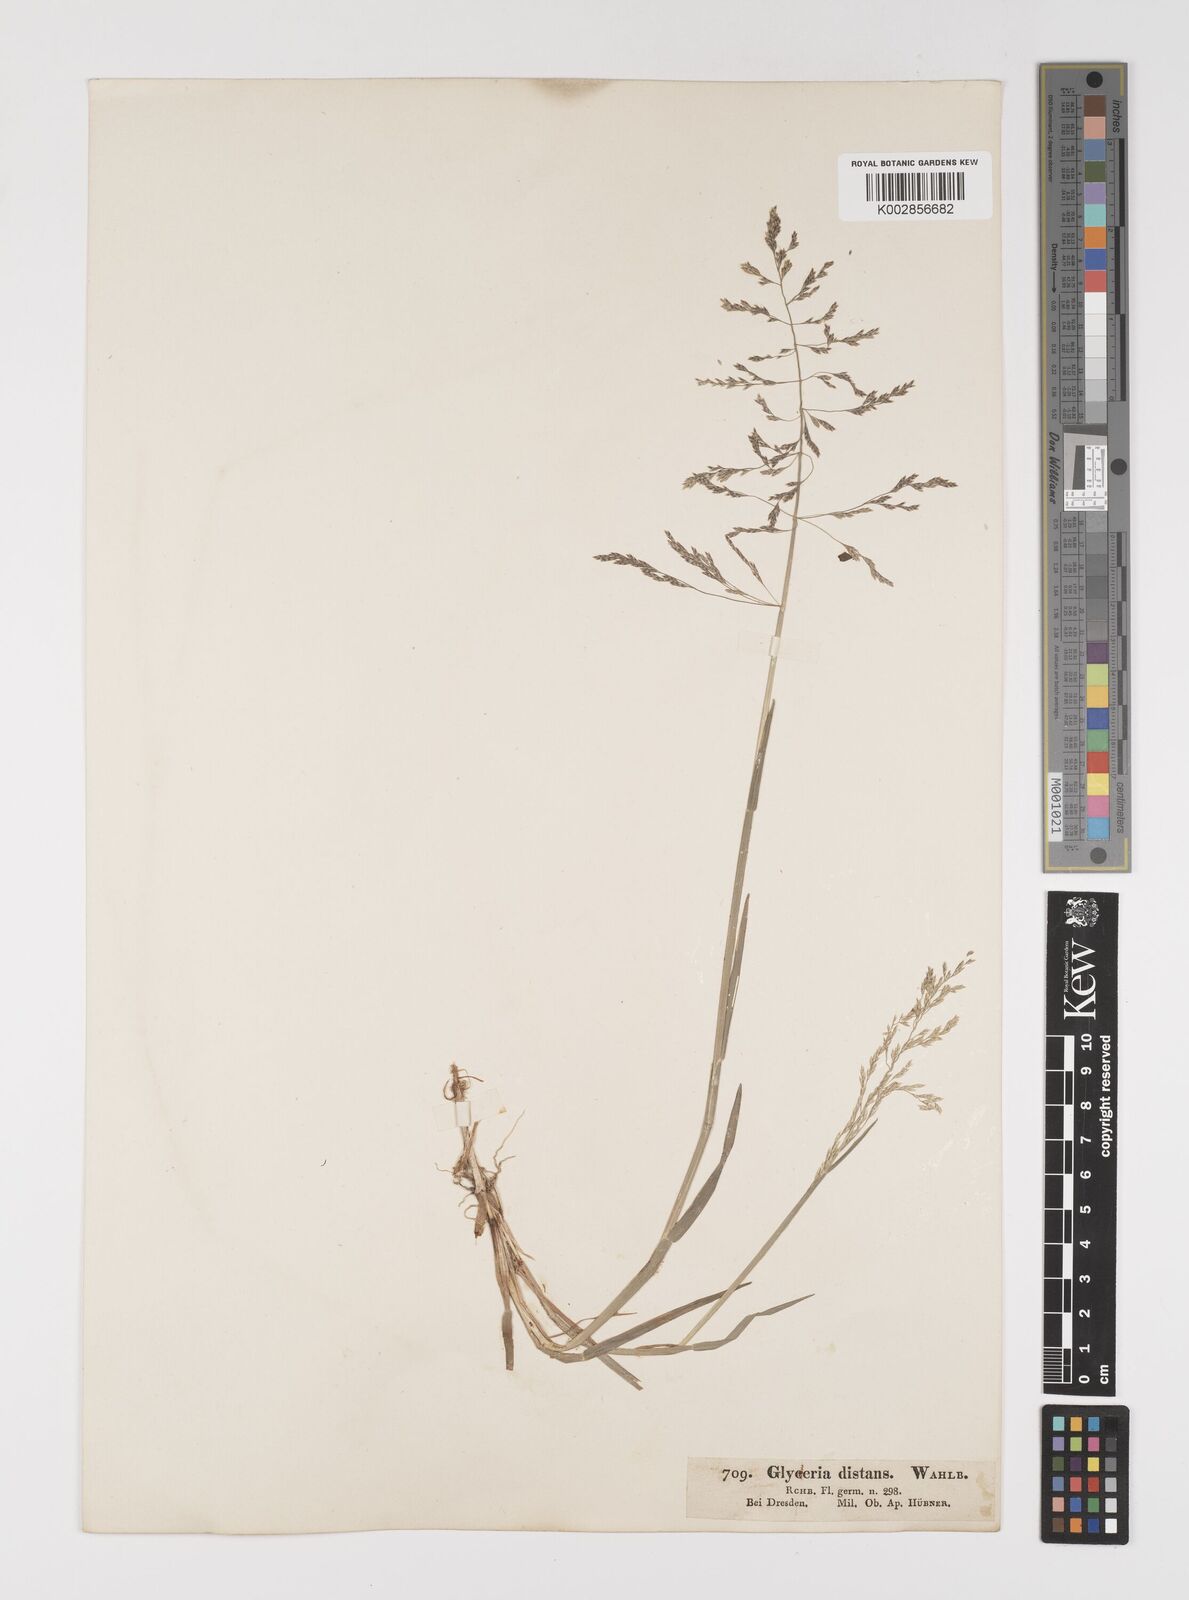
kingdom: Plantae
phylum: Tracheophyta
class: Liliopsida
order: Poales
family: Poaceae
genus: Puccinellia
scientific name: Puccinellia
